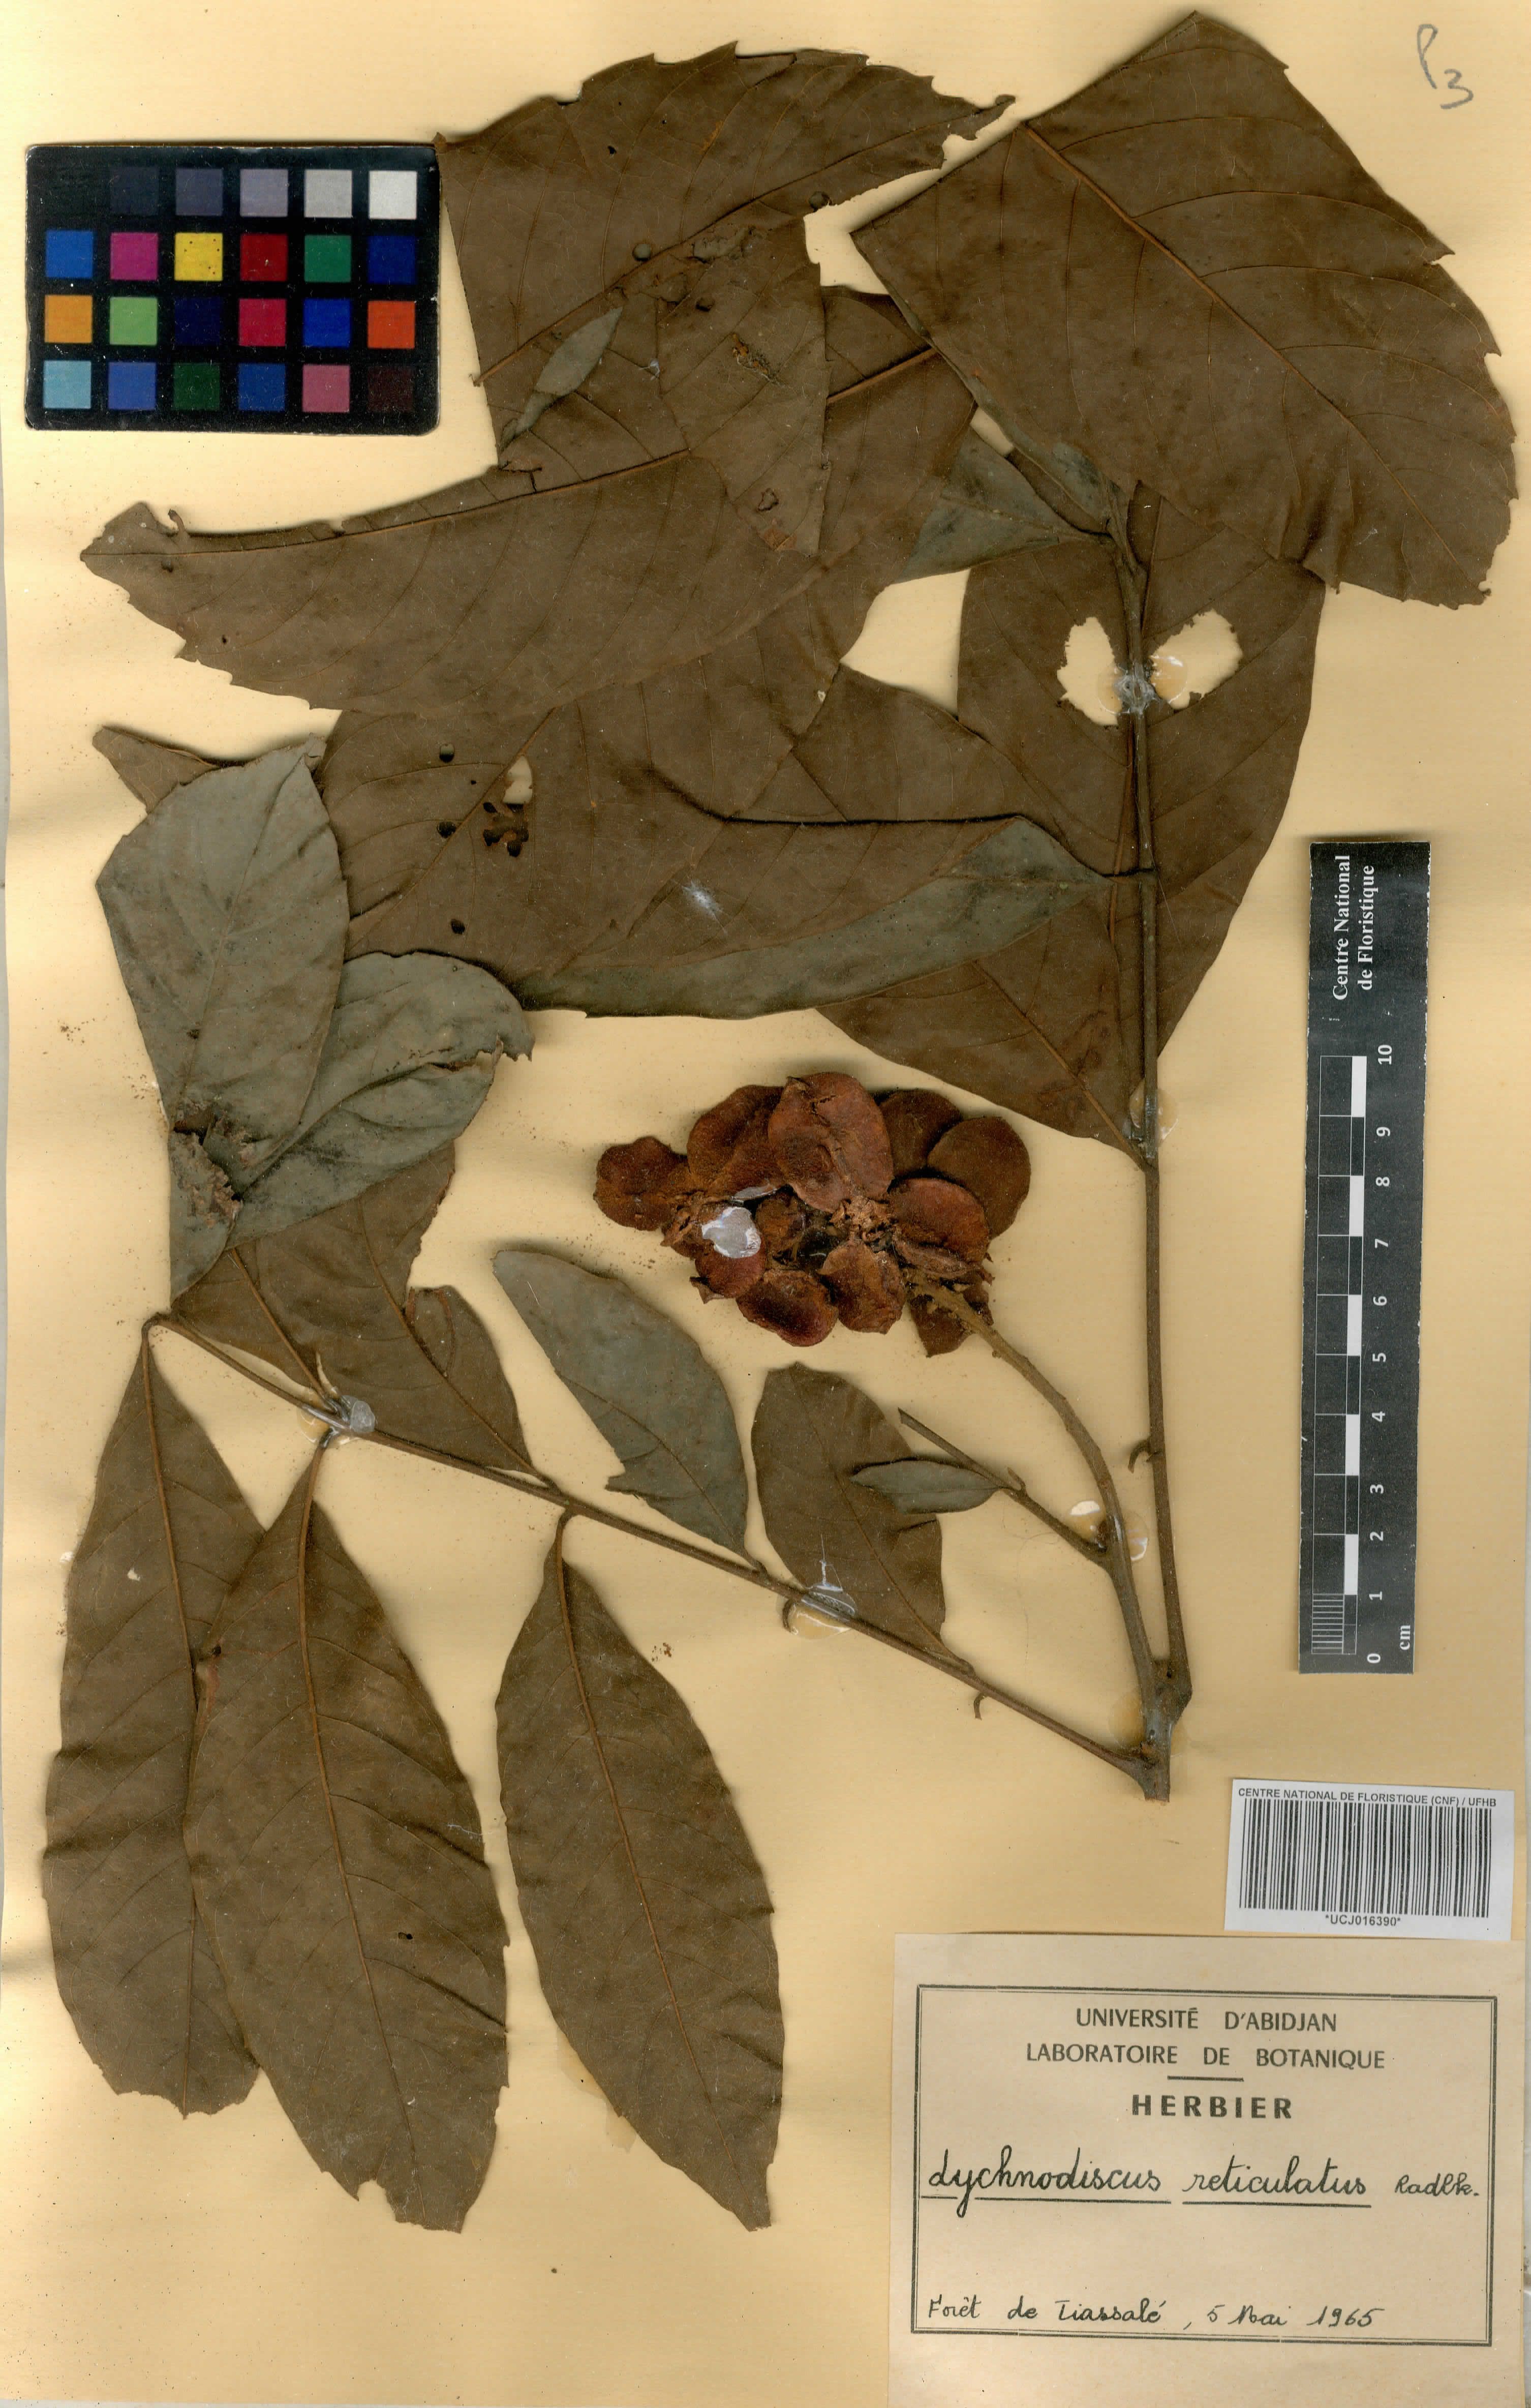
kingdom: Plantae
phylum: Tracheophyta
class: Magnoliopsida
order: Sapindales
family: Sapindaceae
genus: Lychnodiscus
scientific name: Lychnodiscus reticulatus
